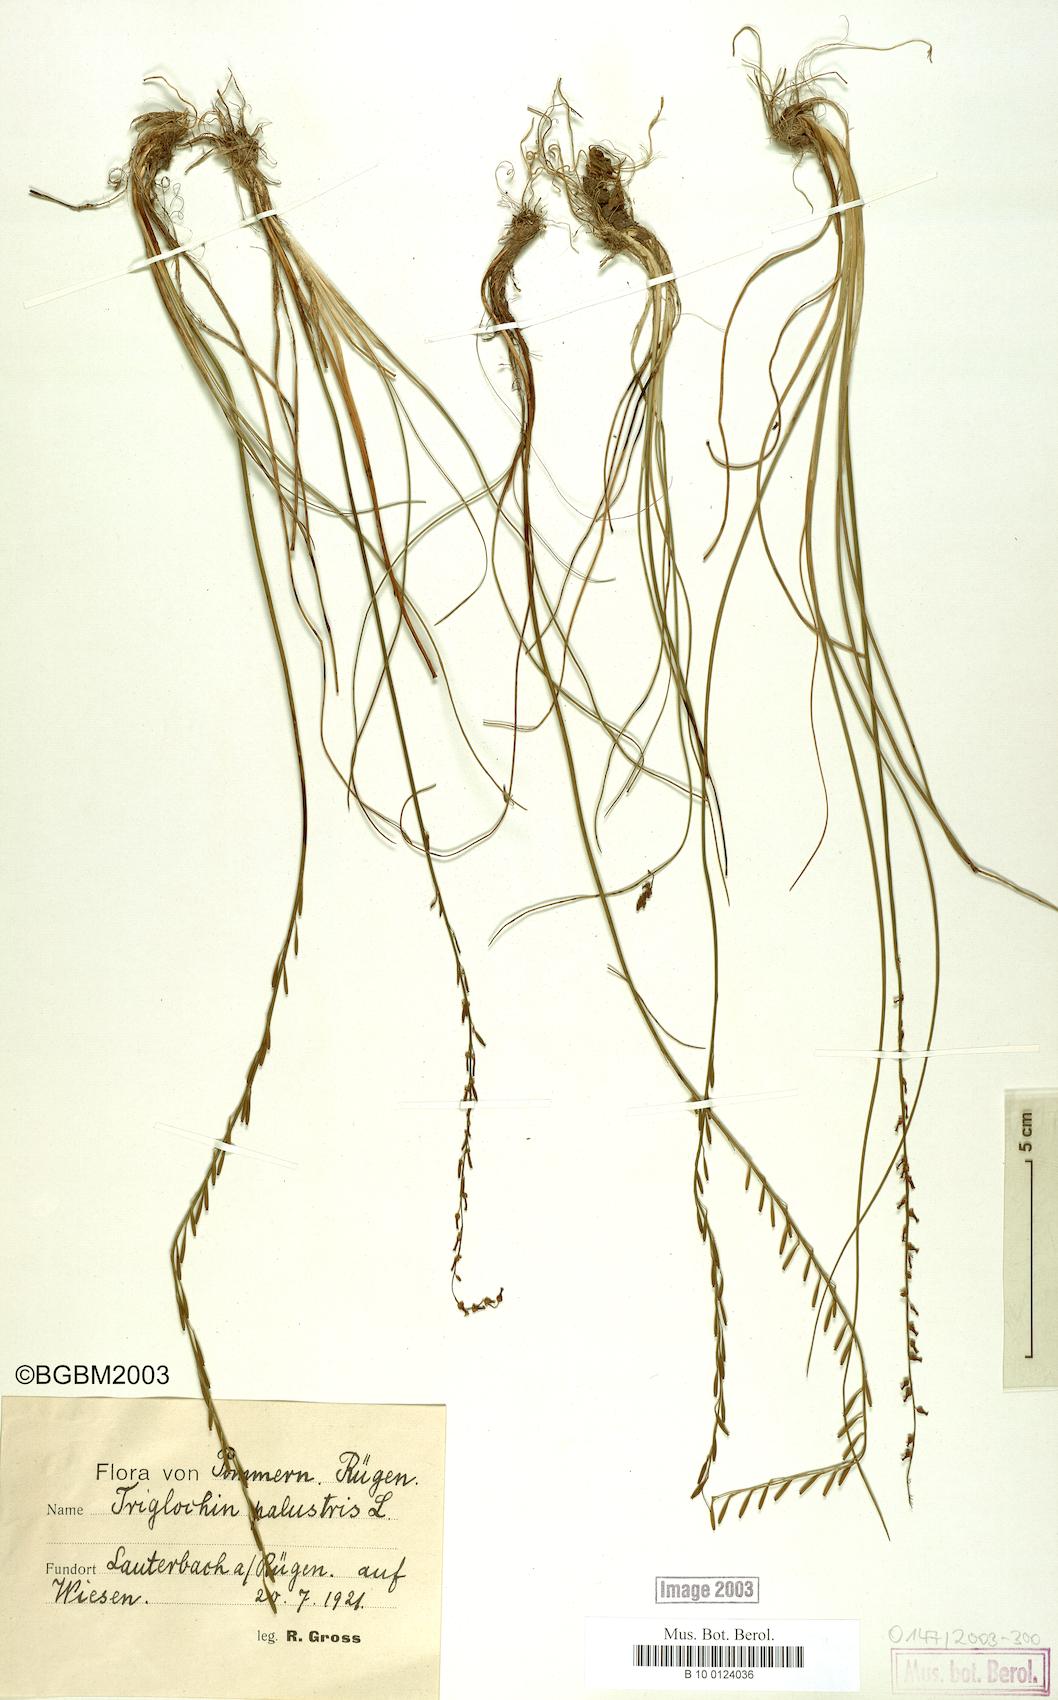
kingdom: Plantae
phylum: Tracheophyta
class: Liliopsida
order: Alismatales
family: Juncaginaceae
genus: Triglochin
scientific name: Triglochin palustris
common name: Marsh arrowgrass
